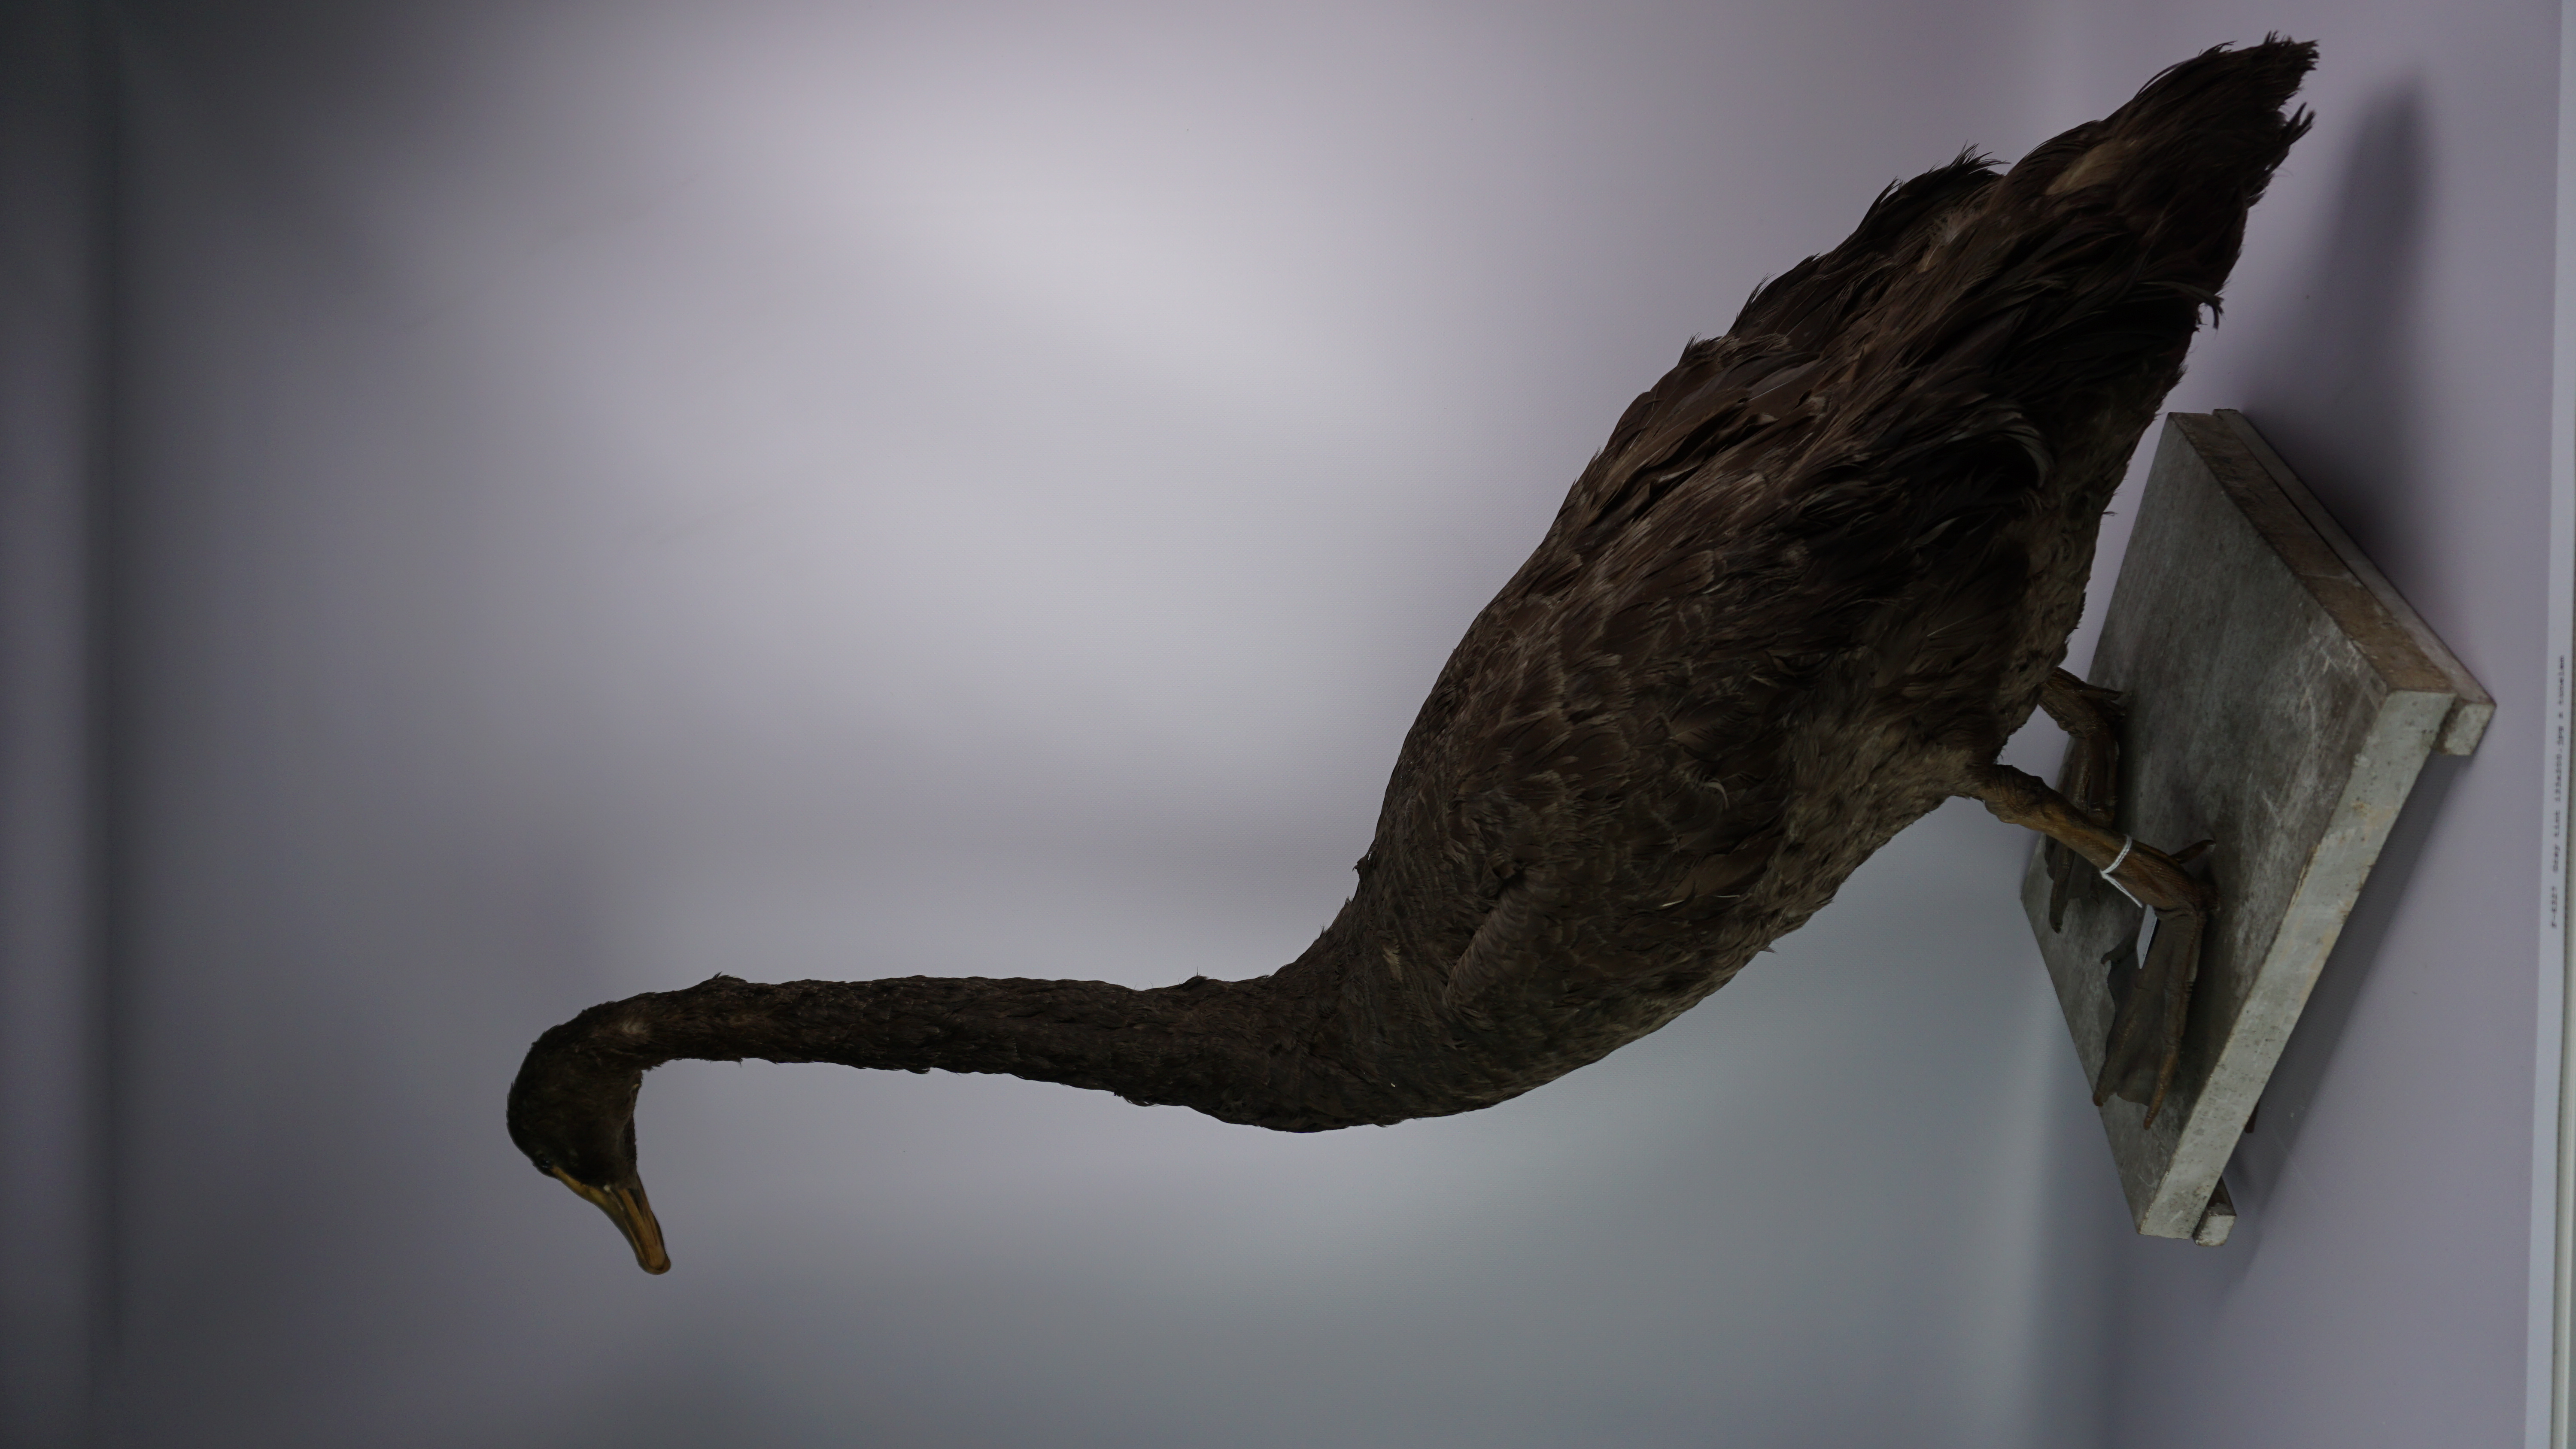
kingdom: Animalia
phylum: Chordata
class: Aves
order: Anseriformes
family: Anatidae
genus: Cygnus
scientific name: Cygnus atratus
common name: Black swan
